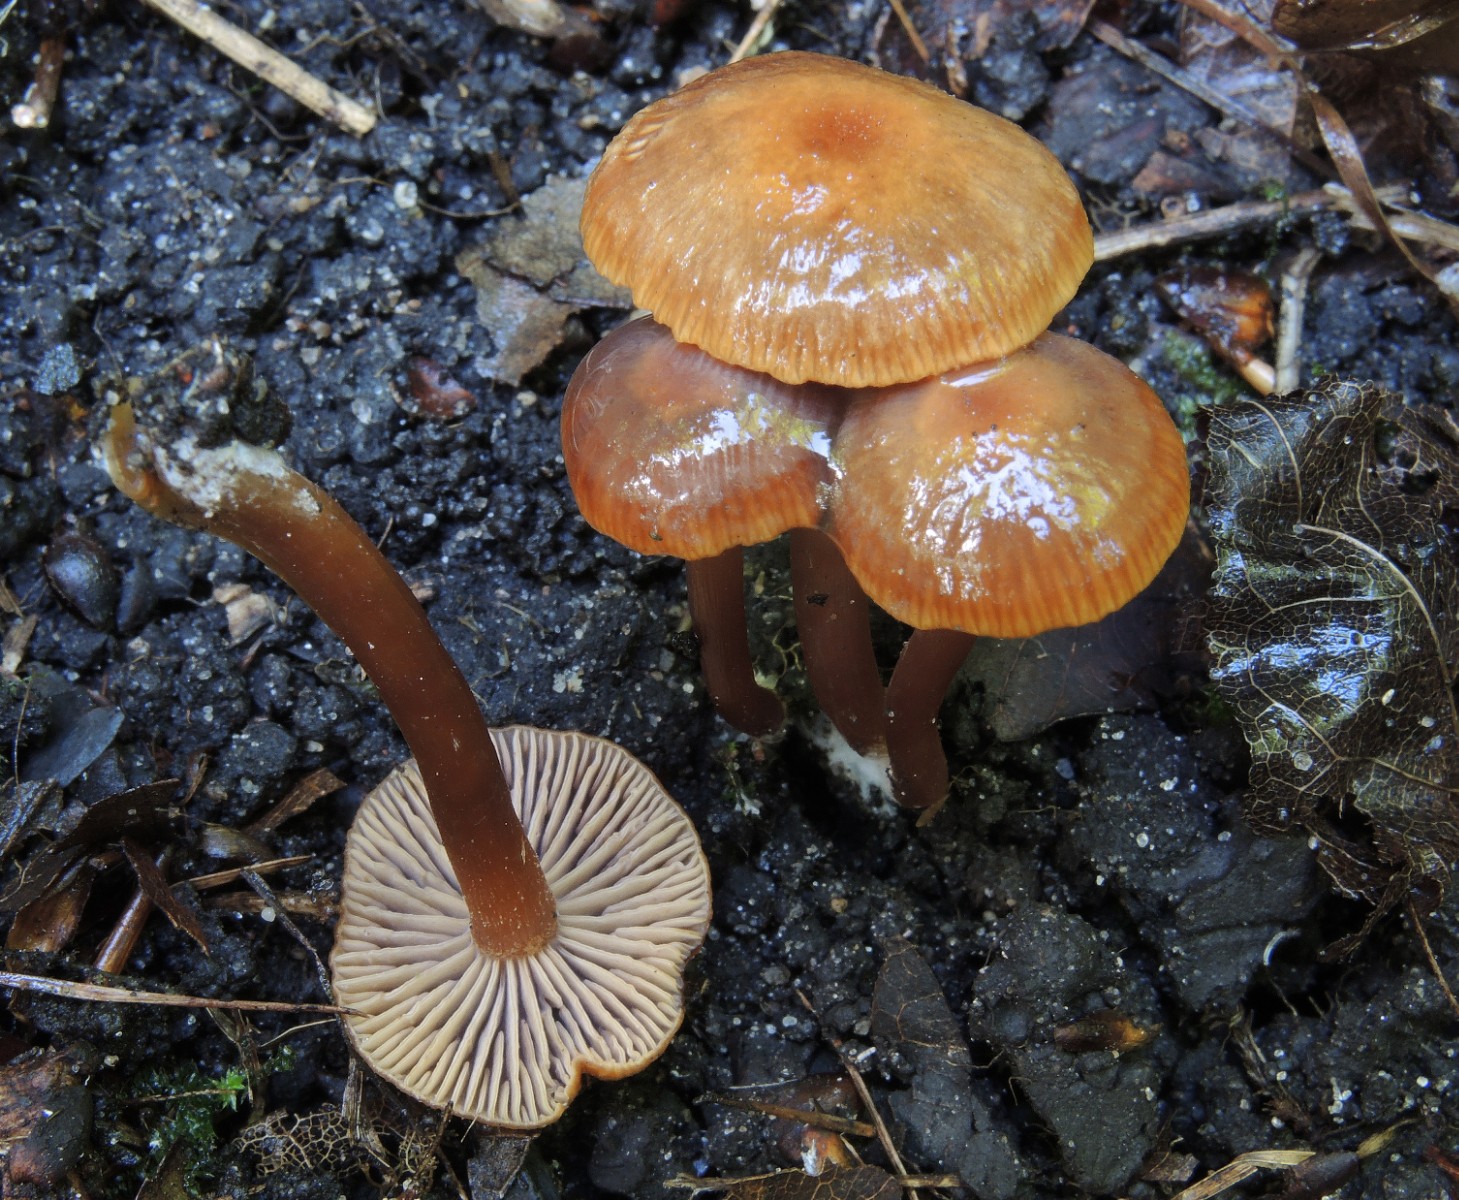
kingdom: Fungi
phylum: Basidiomycota
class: Agaricomycetes
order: Agaricales
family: Entolomataceae
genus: Rhodophana
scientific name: Rhodophana melleopallens
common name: gul troldhat
